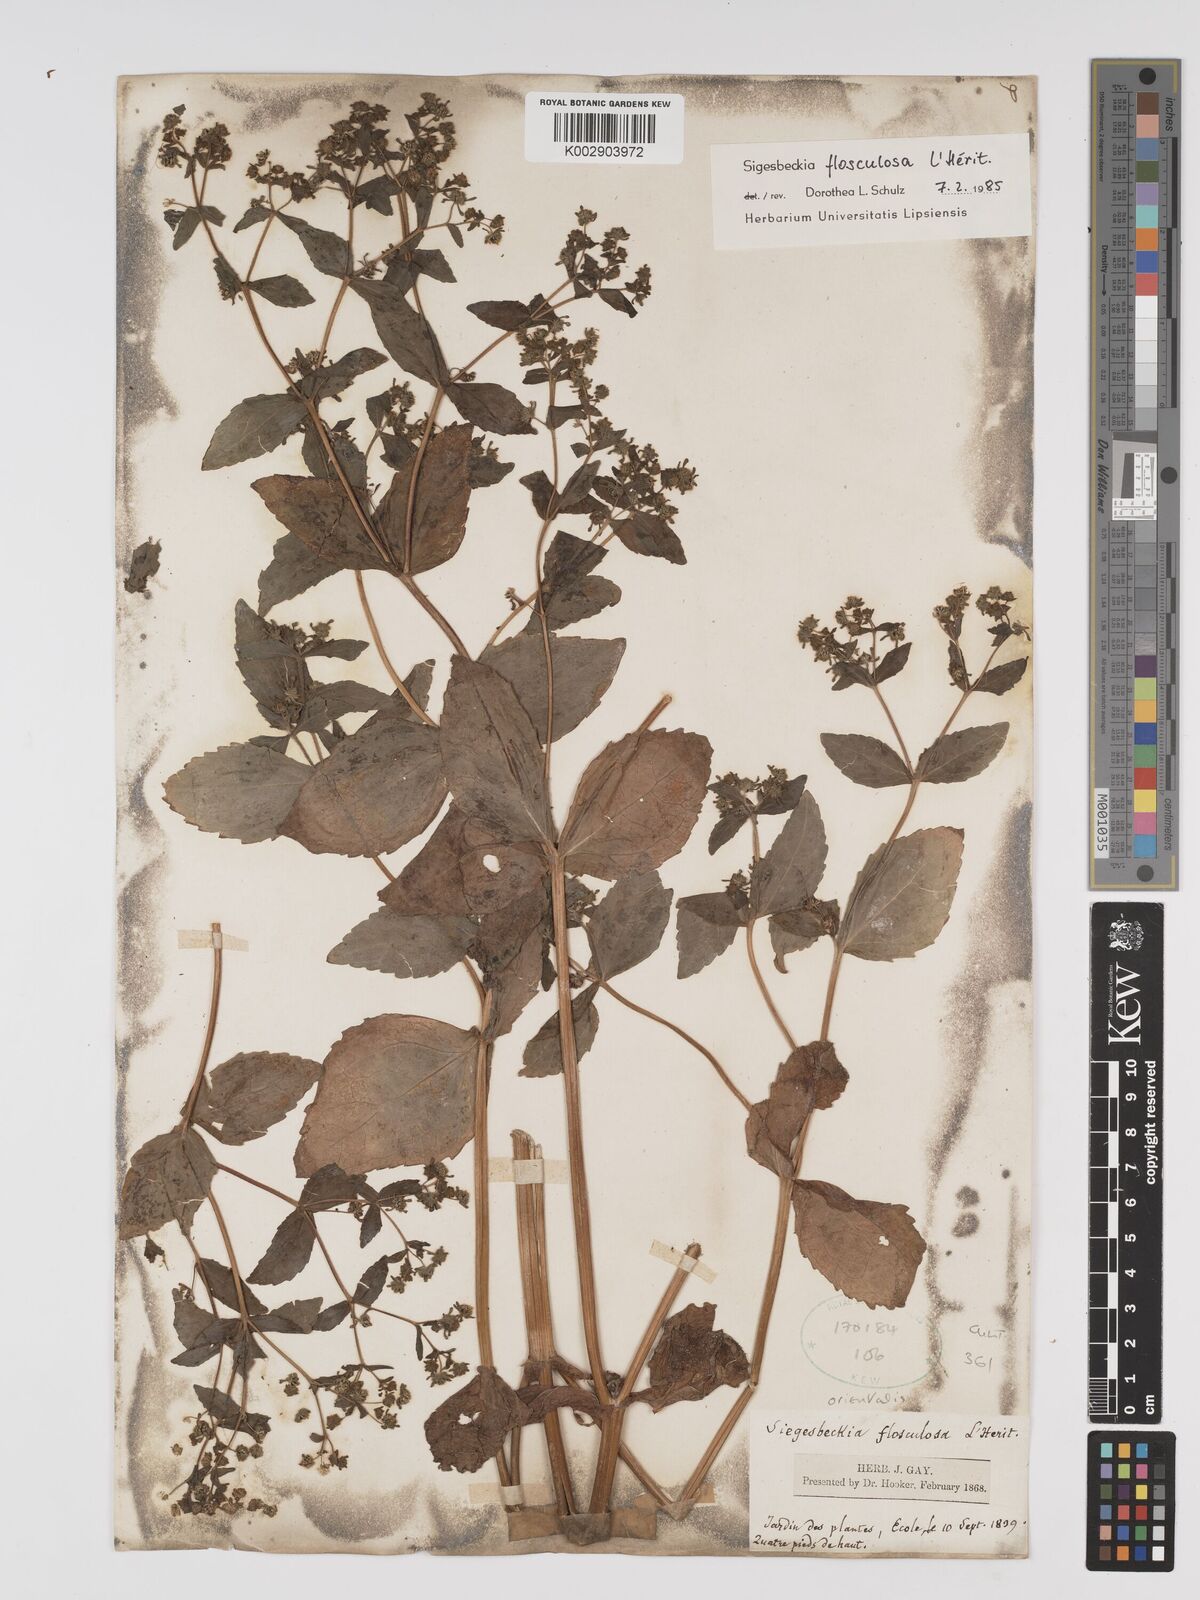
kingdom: Plantae
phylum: Tracheophyta
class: Magnoliopsida
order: Asterales
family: Asteraceae
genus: Sigesbeckia
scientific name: Sigesbeckia flosculosa
